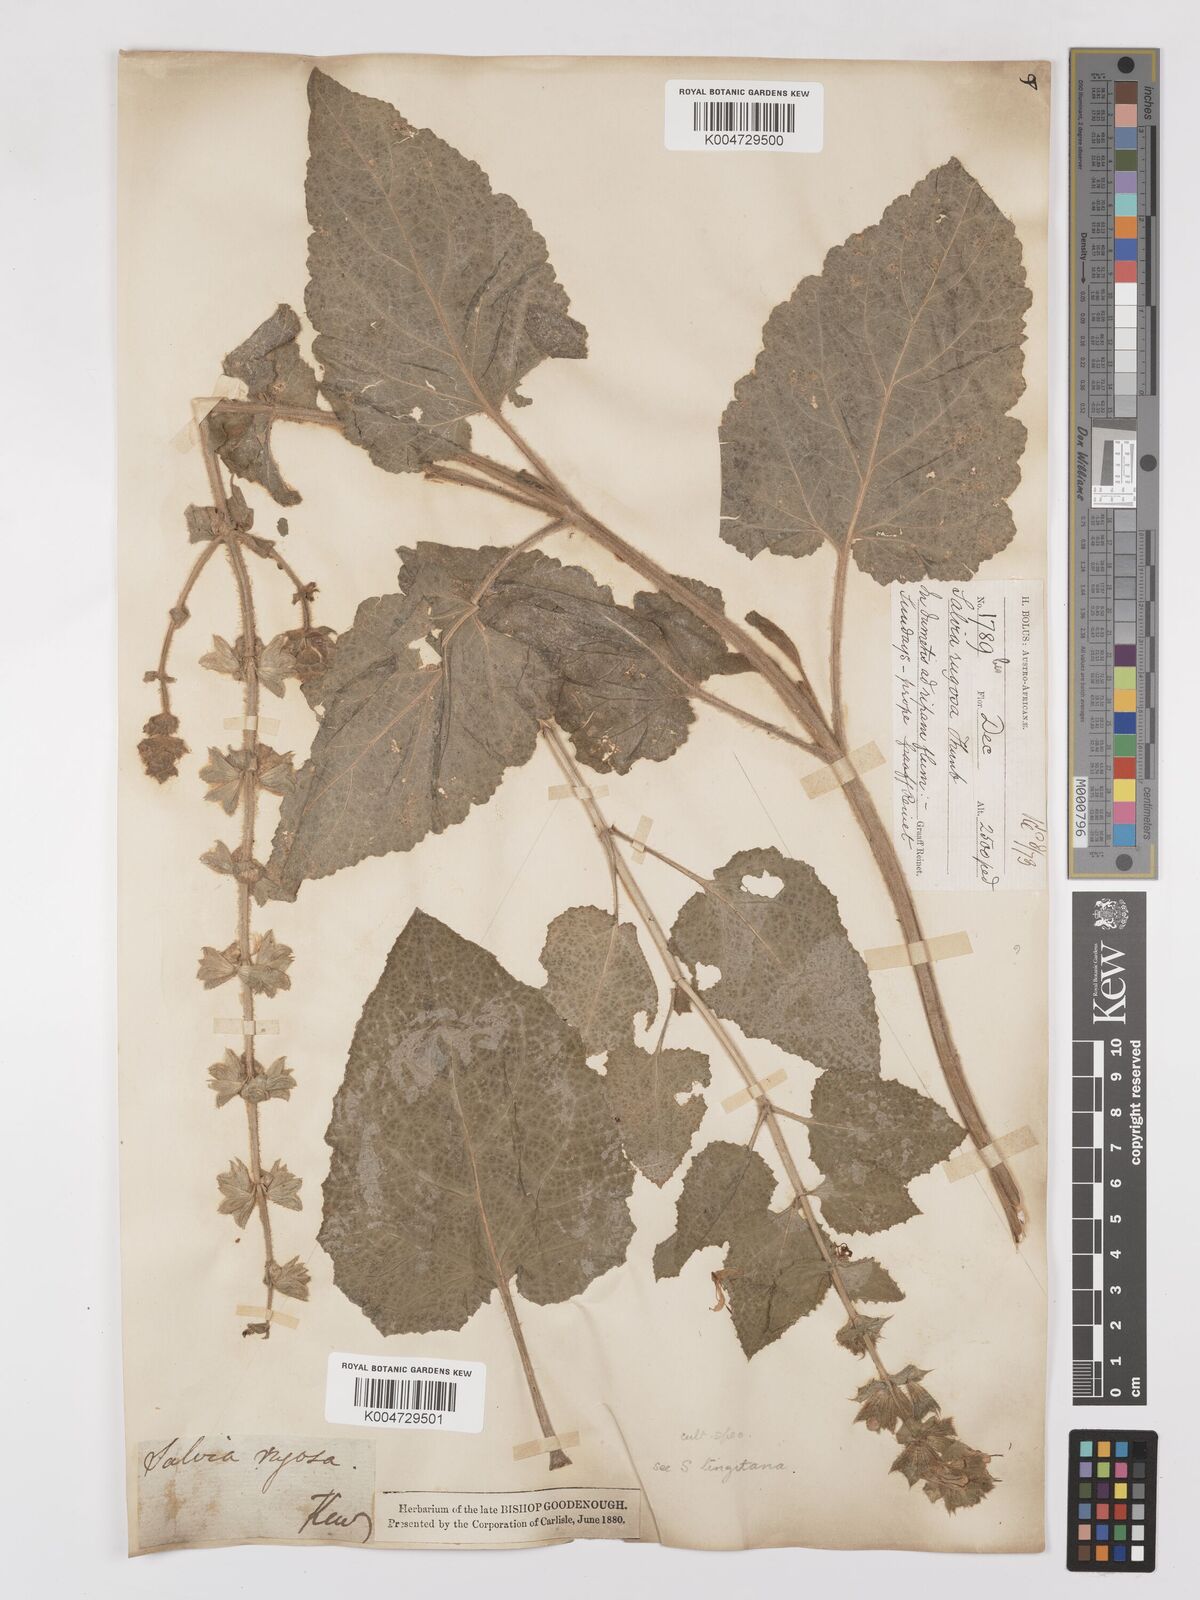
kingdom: Plantae
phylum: Tracheophyta
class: Magnoliopsida
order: Lamiales
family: Lamiaceae
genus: Salvia
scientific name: Salvia
